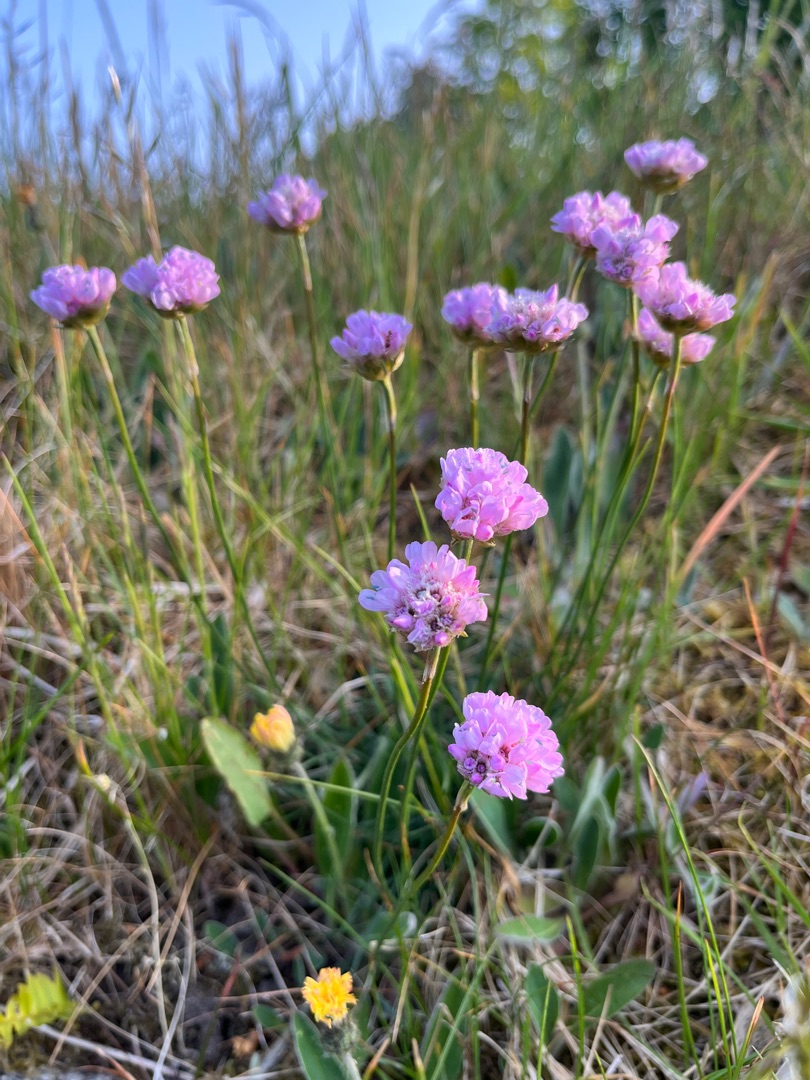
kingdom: Plantae
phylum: Tracheophyta
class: Magnoliopsida
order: Caryophyllales
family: Plumbaginaceae
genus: Armeria
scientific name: Armeria maritima
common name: Engelskgræs
